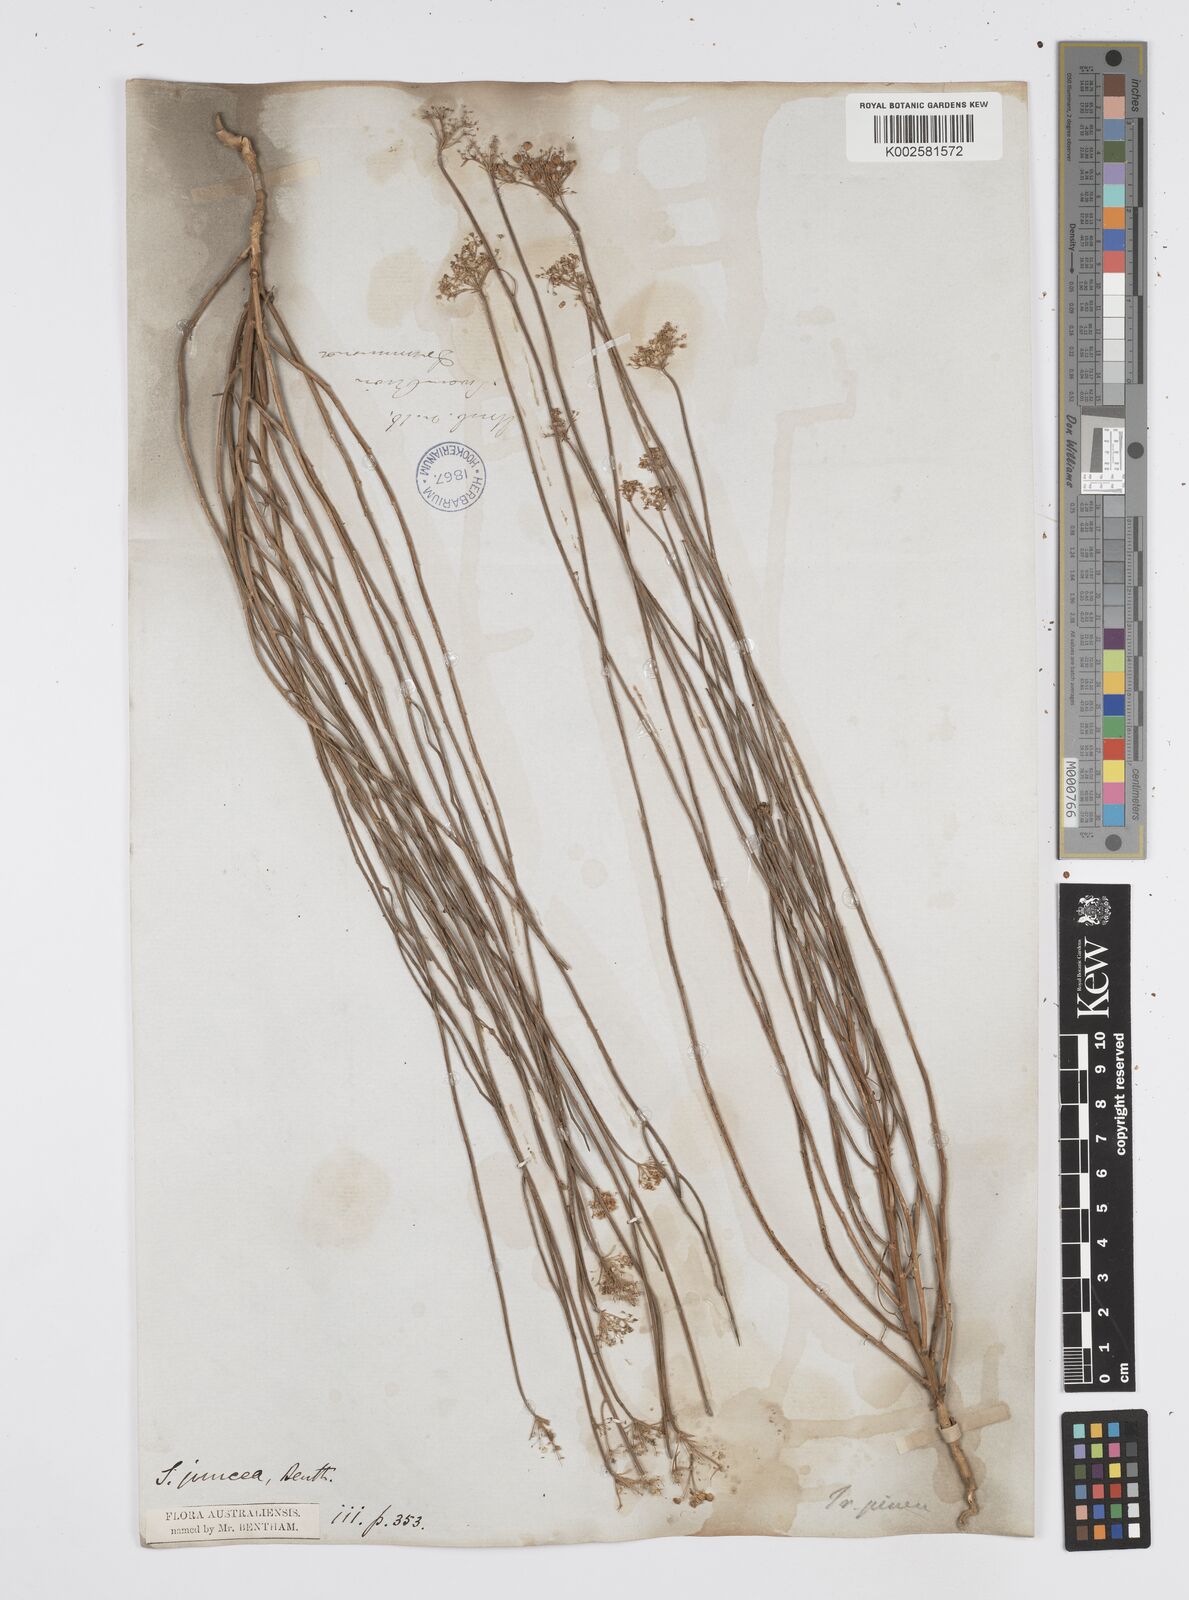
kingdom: Plantae
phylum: Tracheophyta
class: Magnoliopsida
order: Apiales
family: Apiaceae
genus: Platysace
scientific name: Platysace juncea
